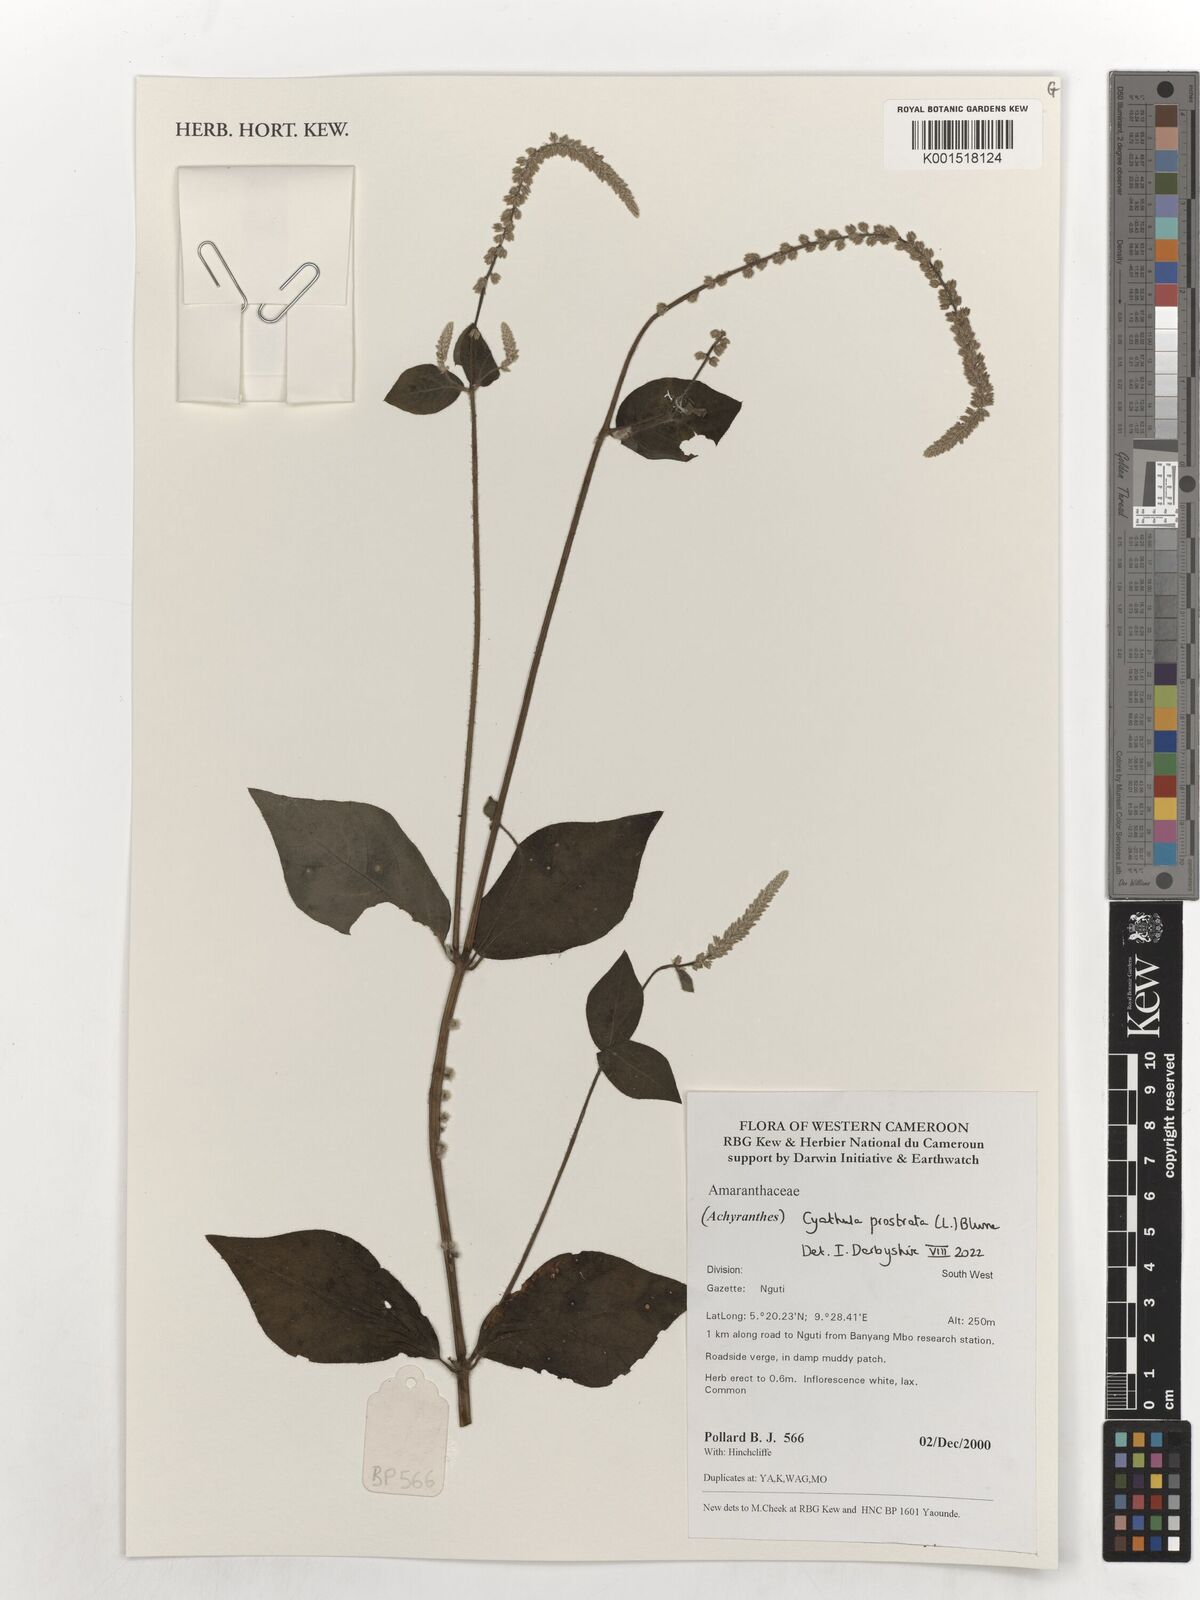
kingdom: Plantae
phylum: Tracheophyta
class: Magnoliopsida
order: Caryophyllales
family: Amaranthaceae
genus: Cyathula
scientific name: Cyathula prostrata
